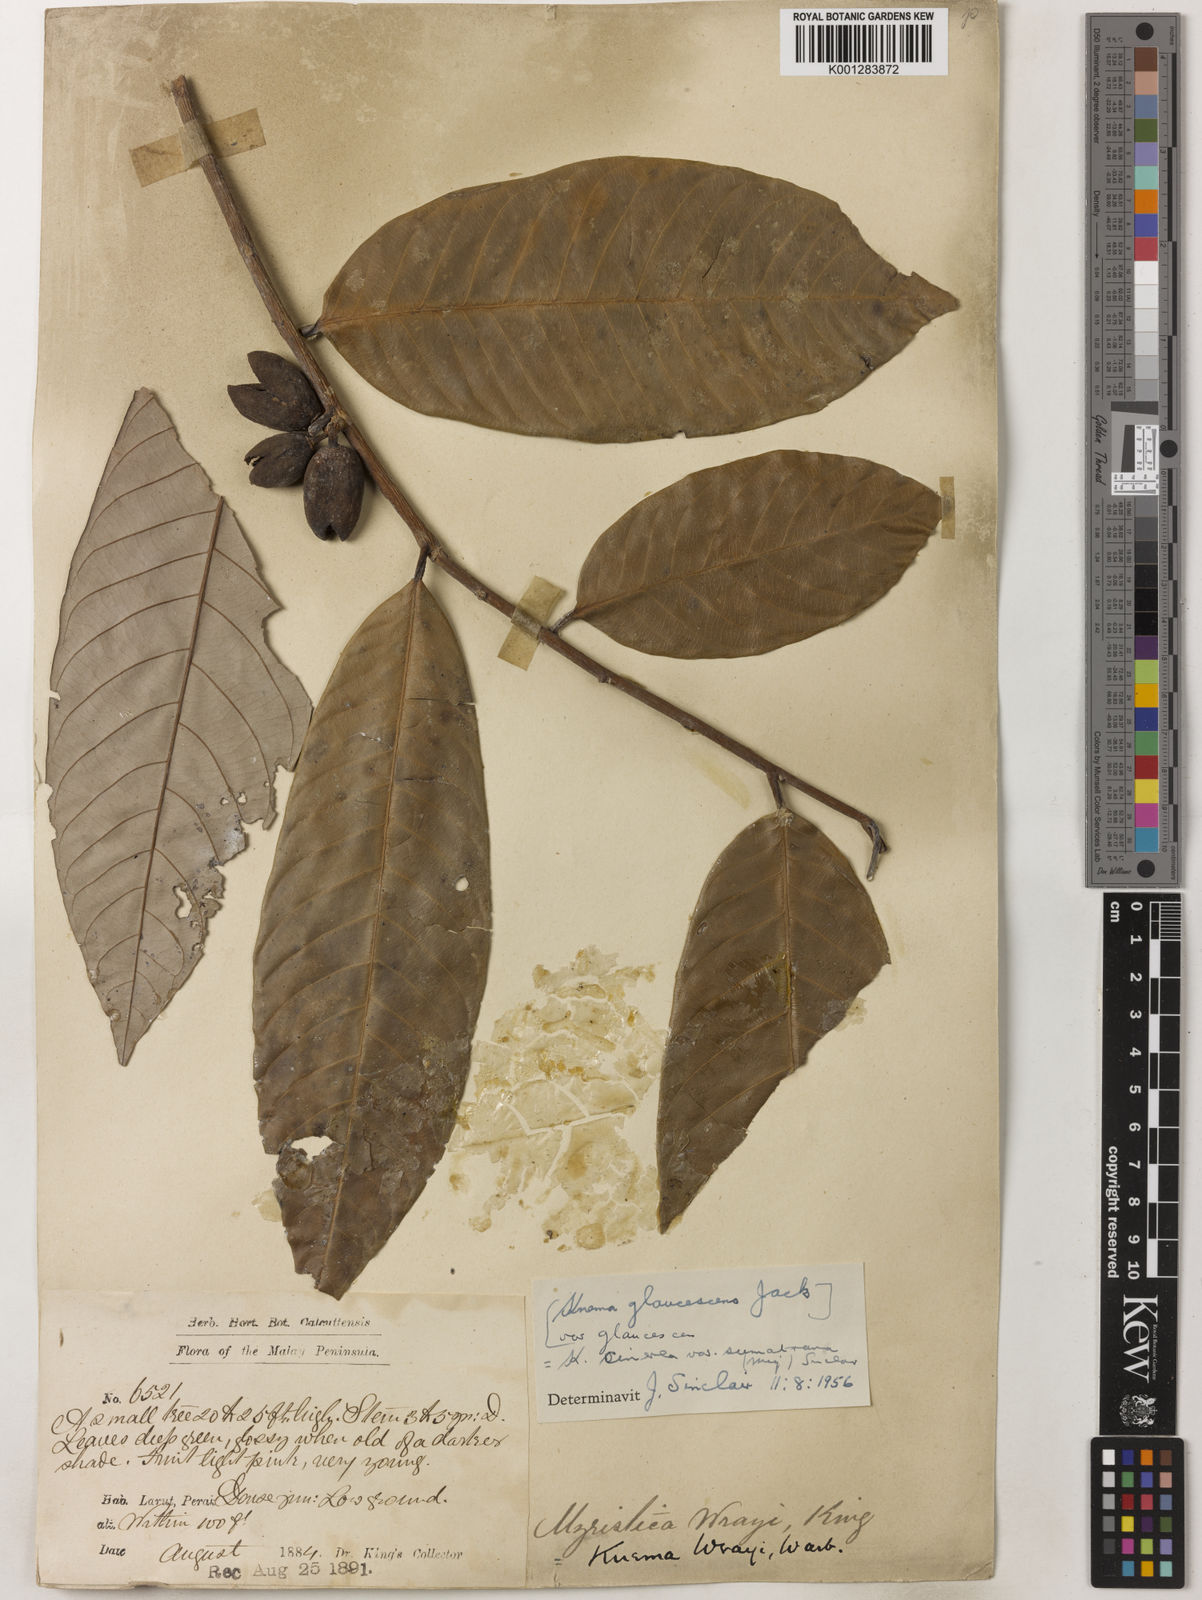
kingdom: Plantae
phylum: Tracheophyta
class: Magnoliopsida
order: Magnoliales
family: Myristicaceae
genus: Knema
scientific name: Knema
